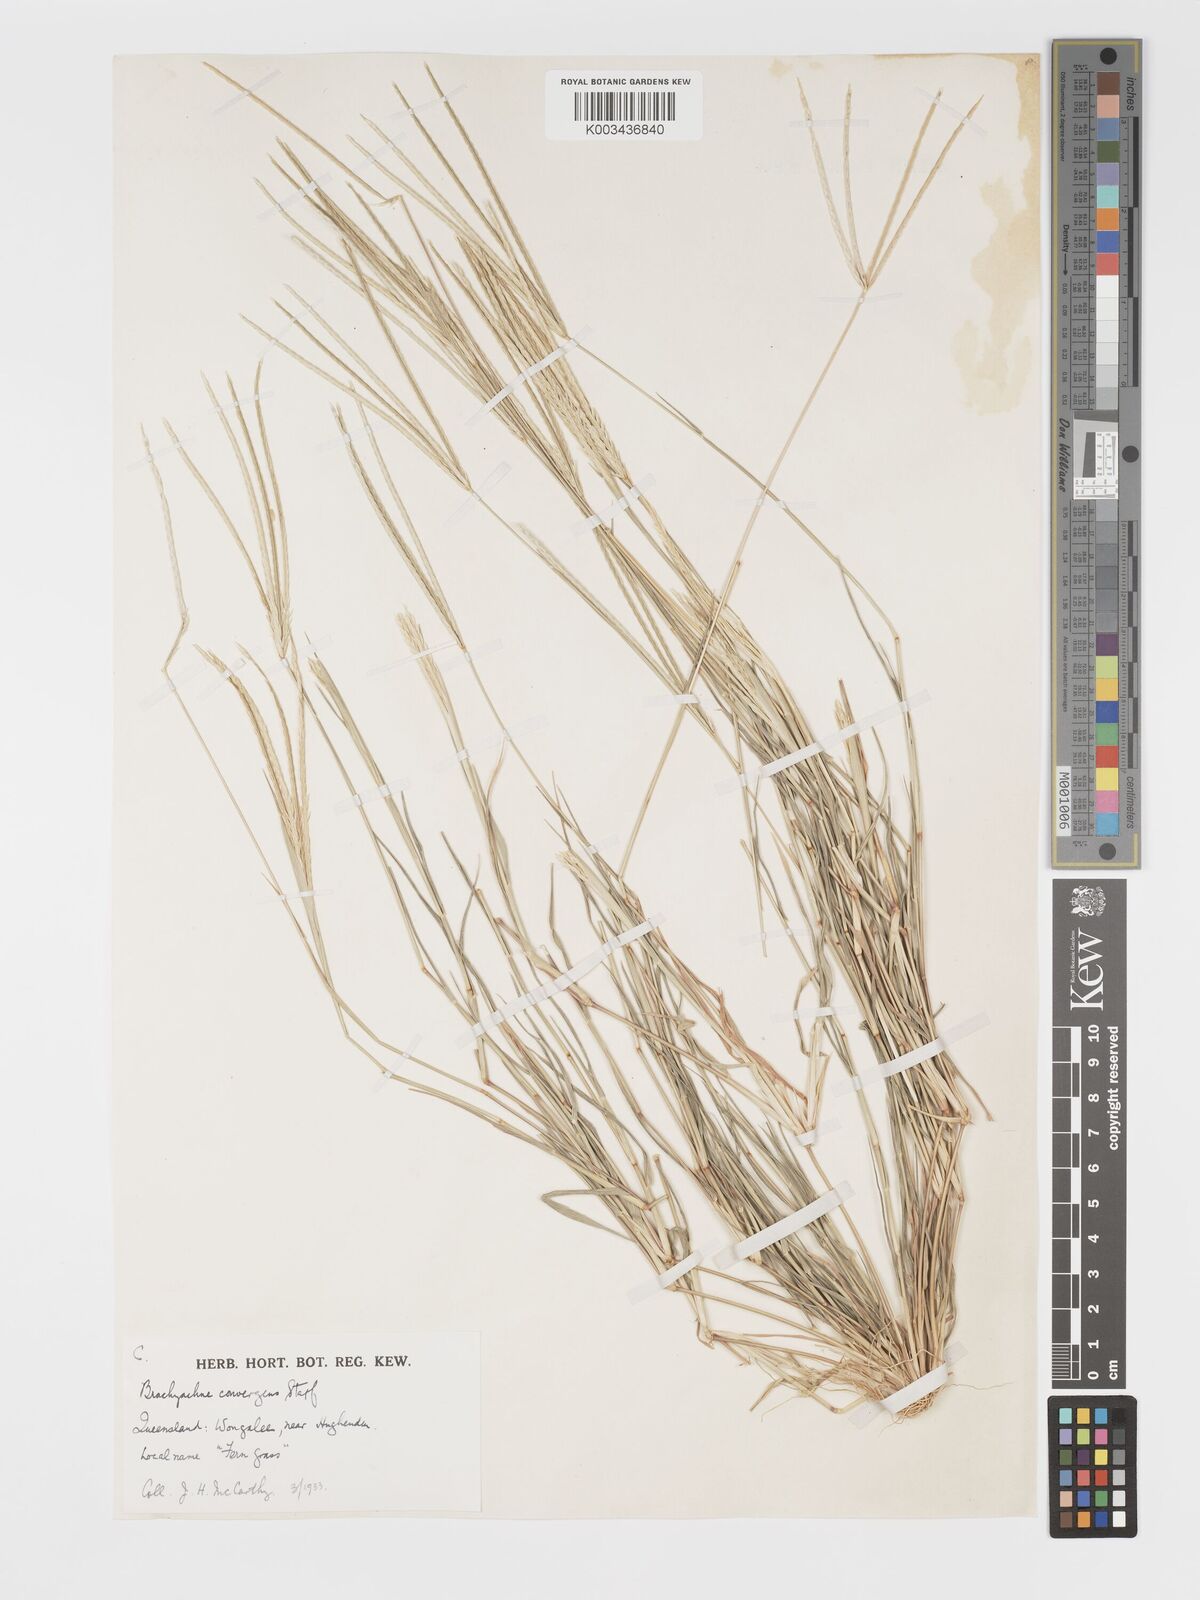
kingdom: Plantae
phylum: Tracheophyta
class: Liliopsida
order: Poales
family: Poaceae
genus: Cynodon
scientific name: Cynodon convergens
